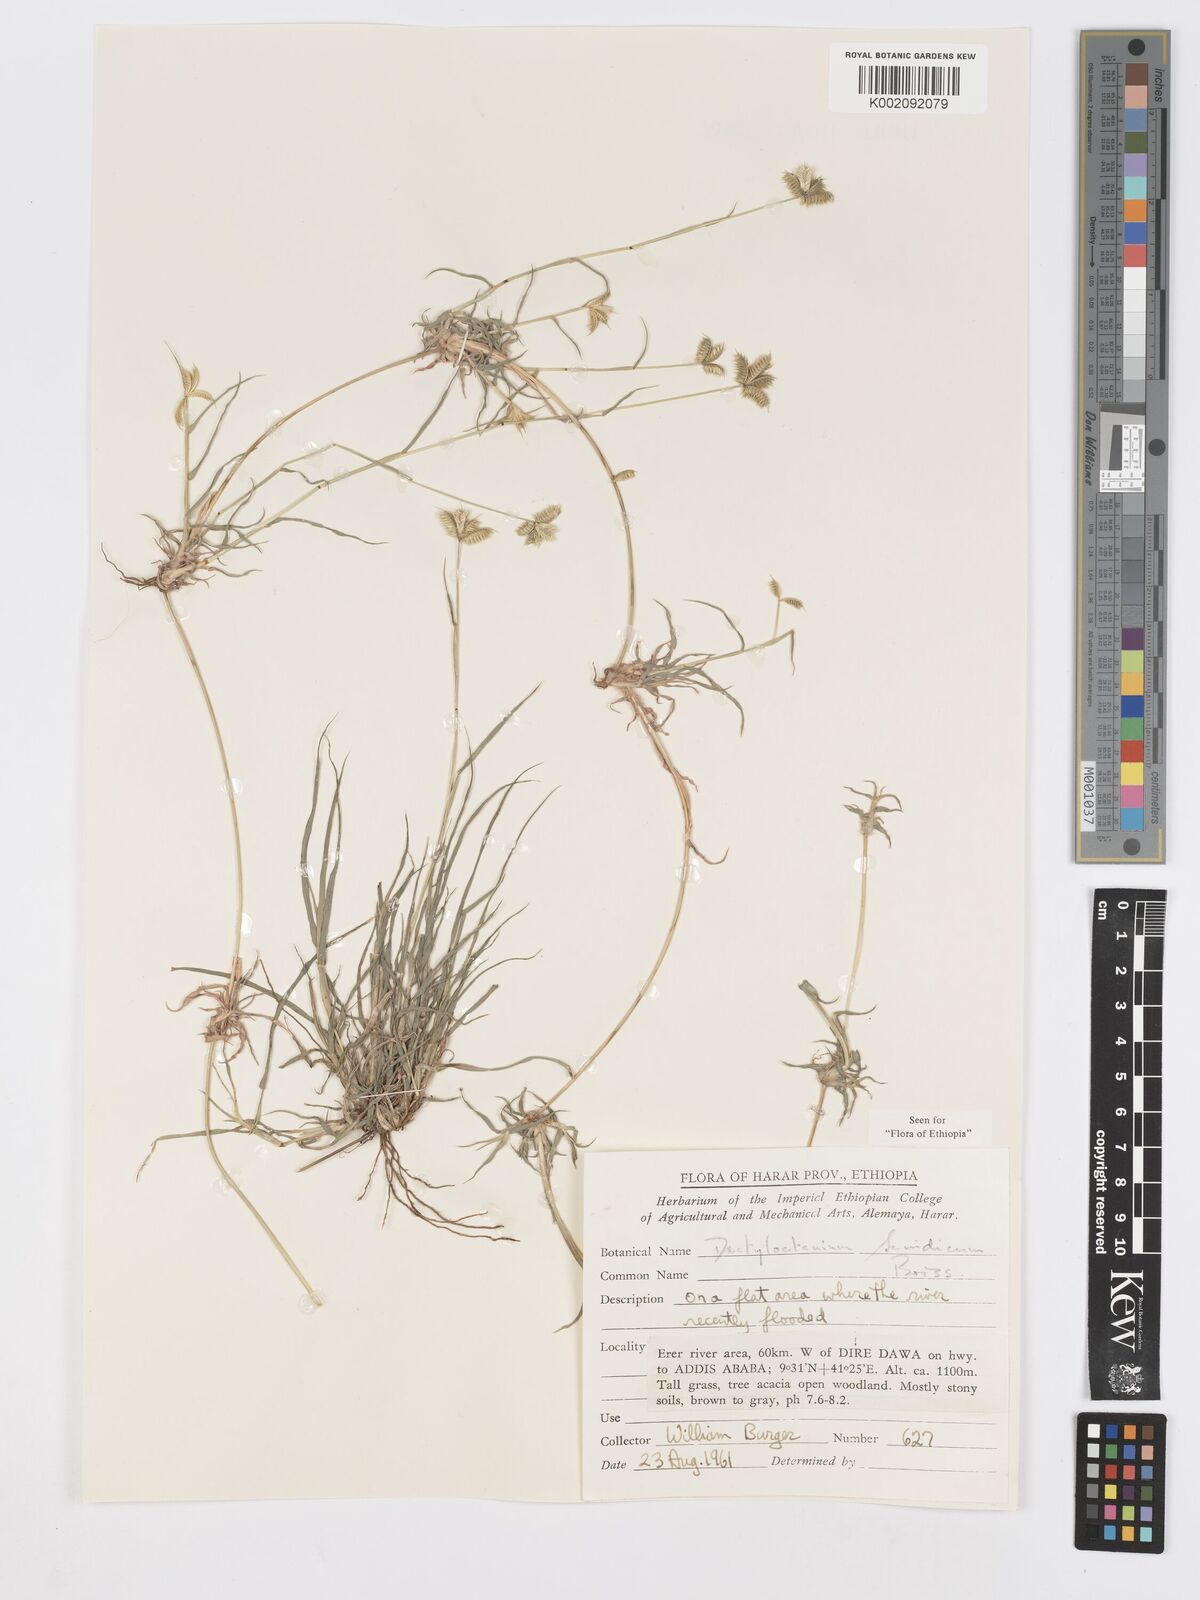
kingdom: Plantae
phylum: Tracheophyta
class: Liliopsida
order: Poales
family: Poaceae
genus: Dactyloctenium
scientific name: Dactyloctenium scindicum
